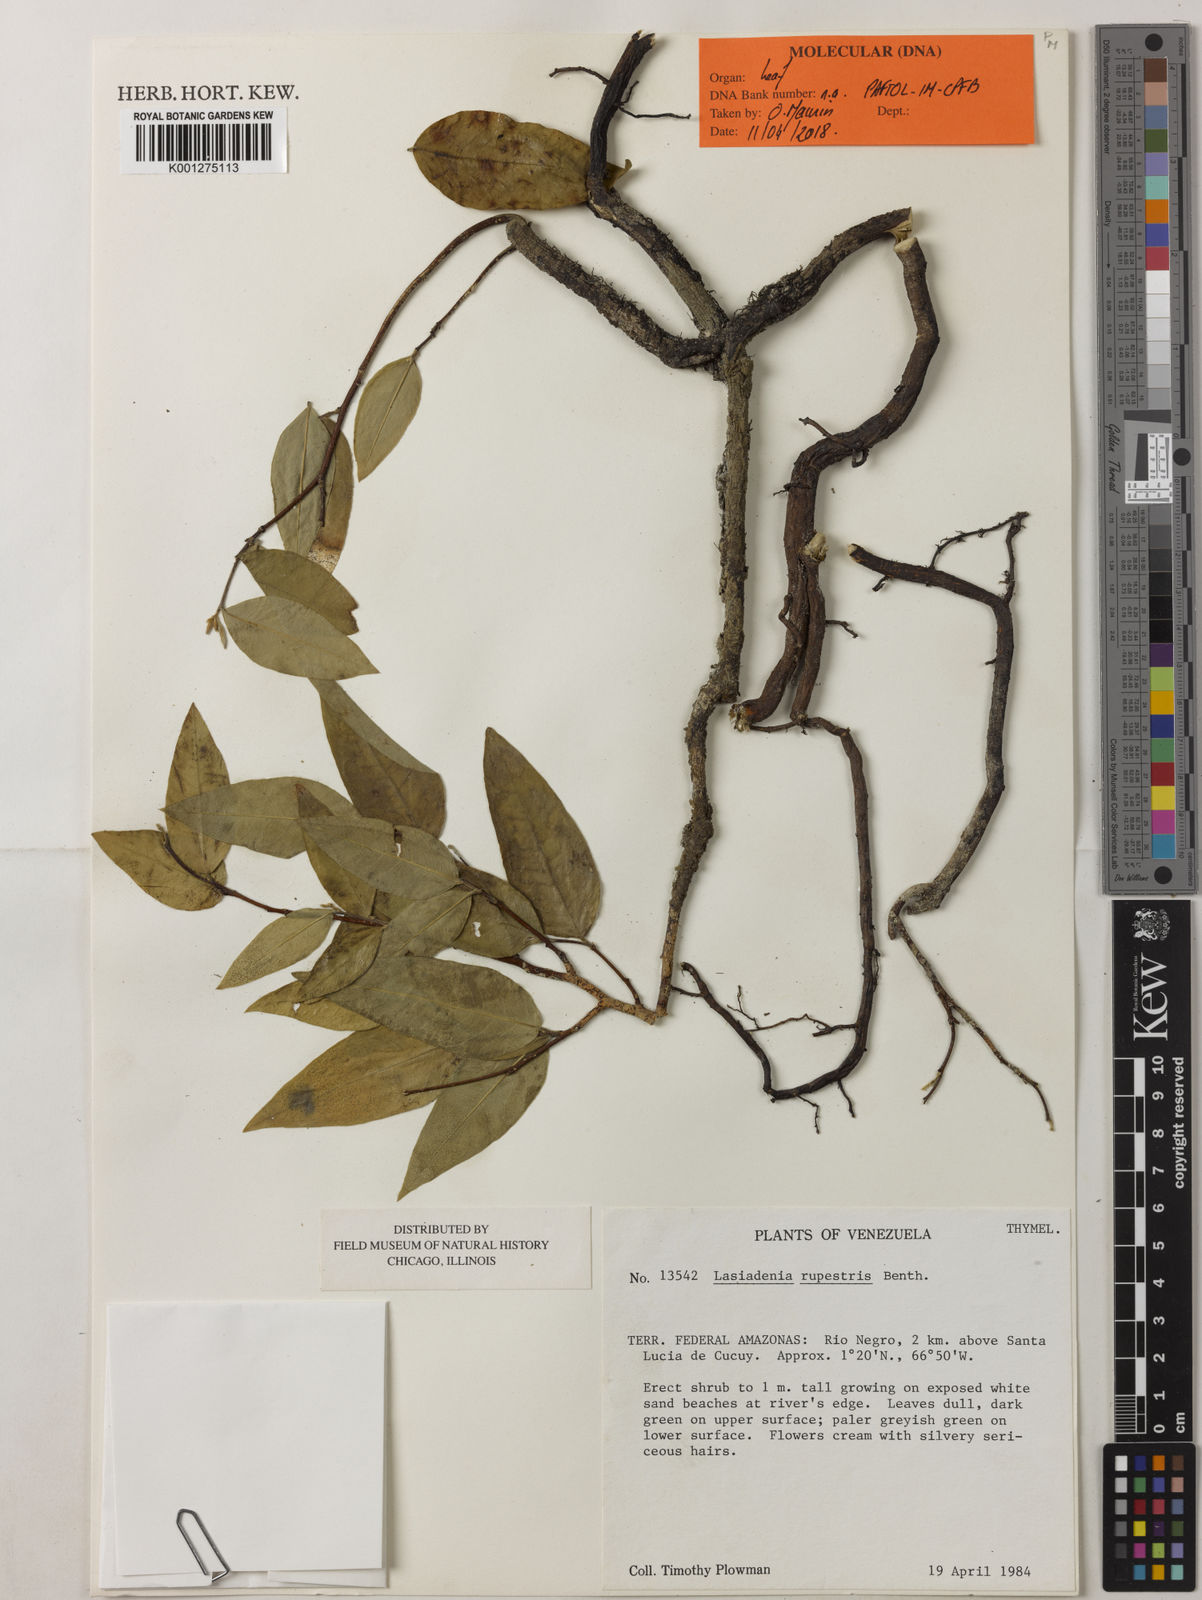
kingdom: Plantae
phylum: Tracheophyta
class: Magnoliopsida
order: Malvales
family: Thymelaeaceae
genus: Lasiadenia
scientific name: Lasiadenia rupestris
